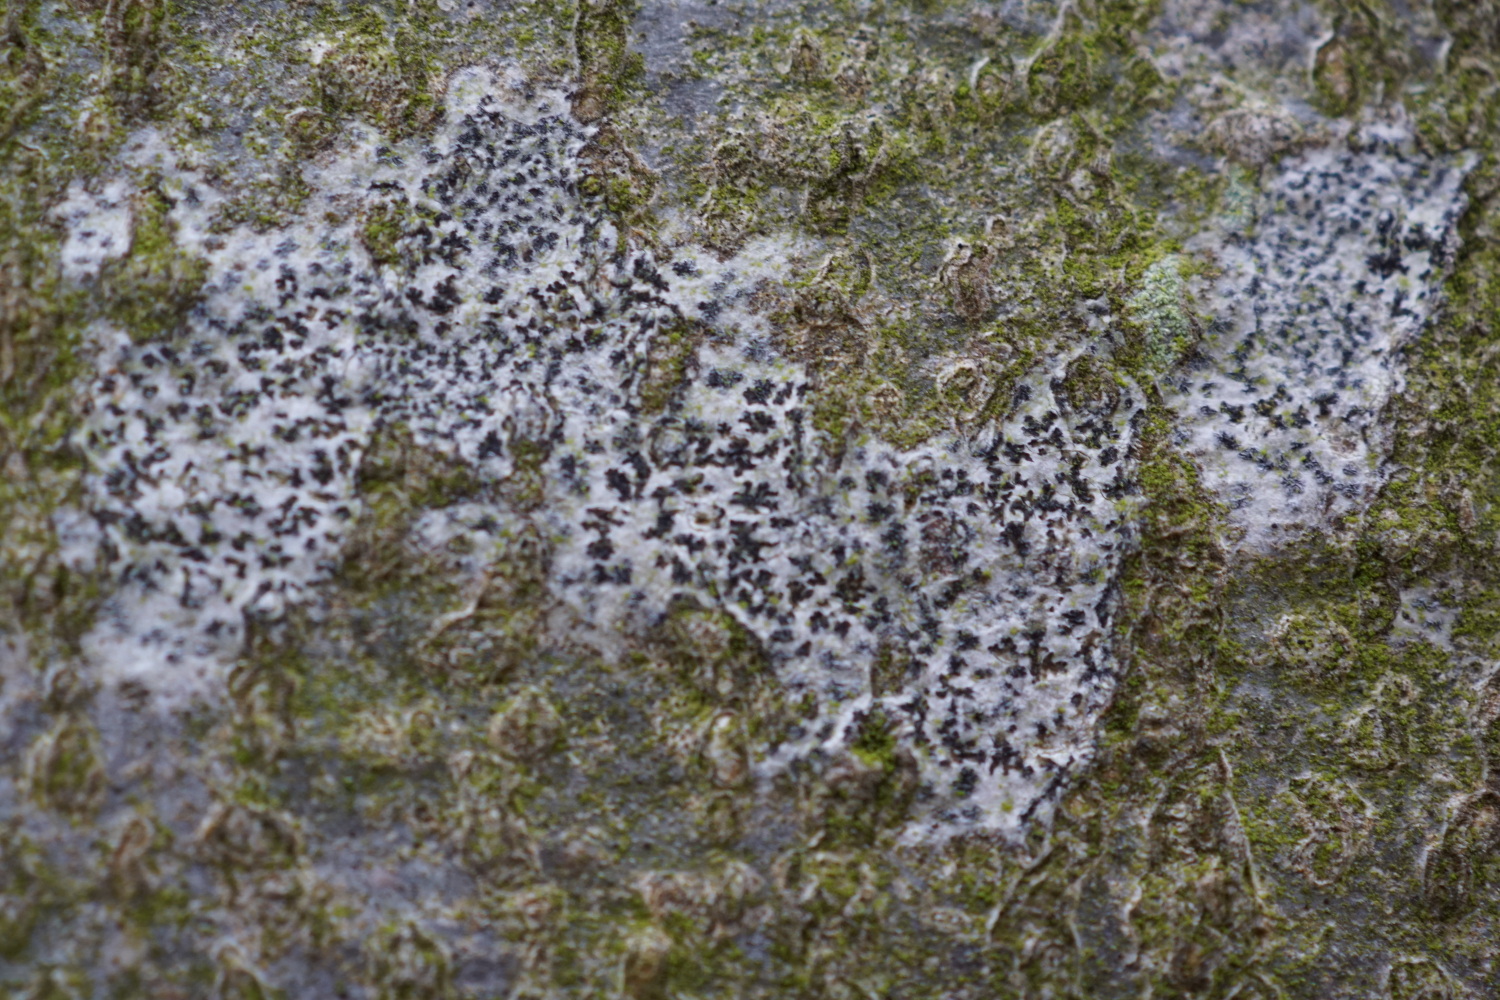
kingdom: Fungi
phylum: Ascomycota
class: Arthoniomycetes
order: Arthoniales
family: Arthoniaceae
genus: Arthonia
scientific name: Arthonia radiata
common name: stjerne-pletlav
